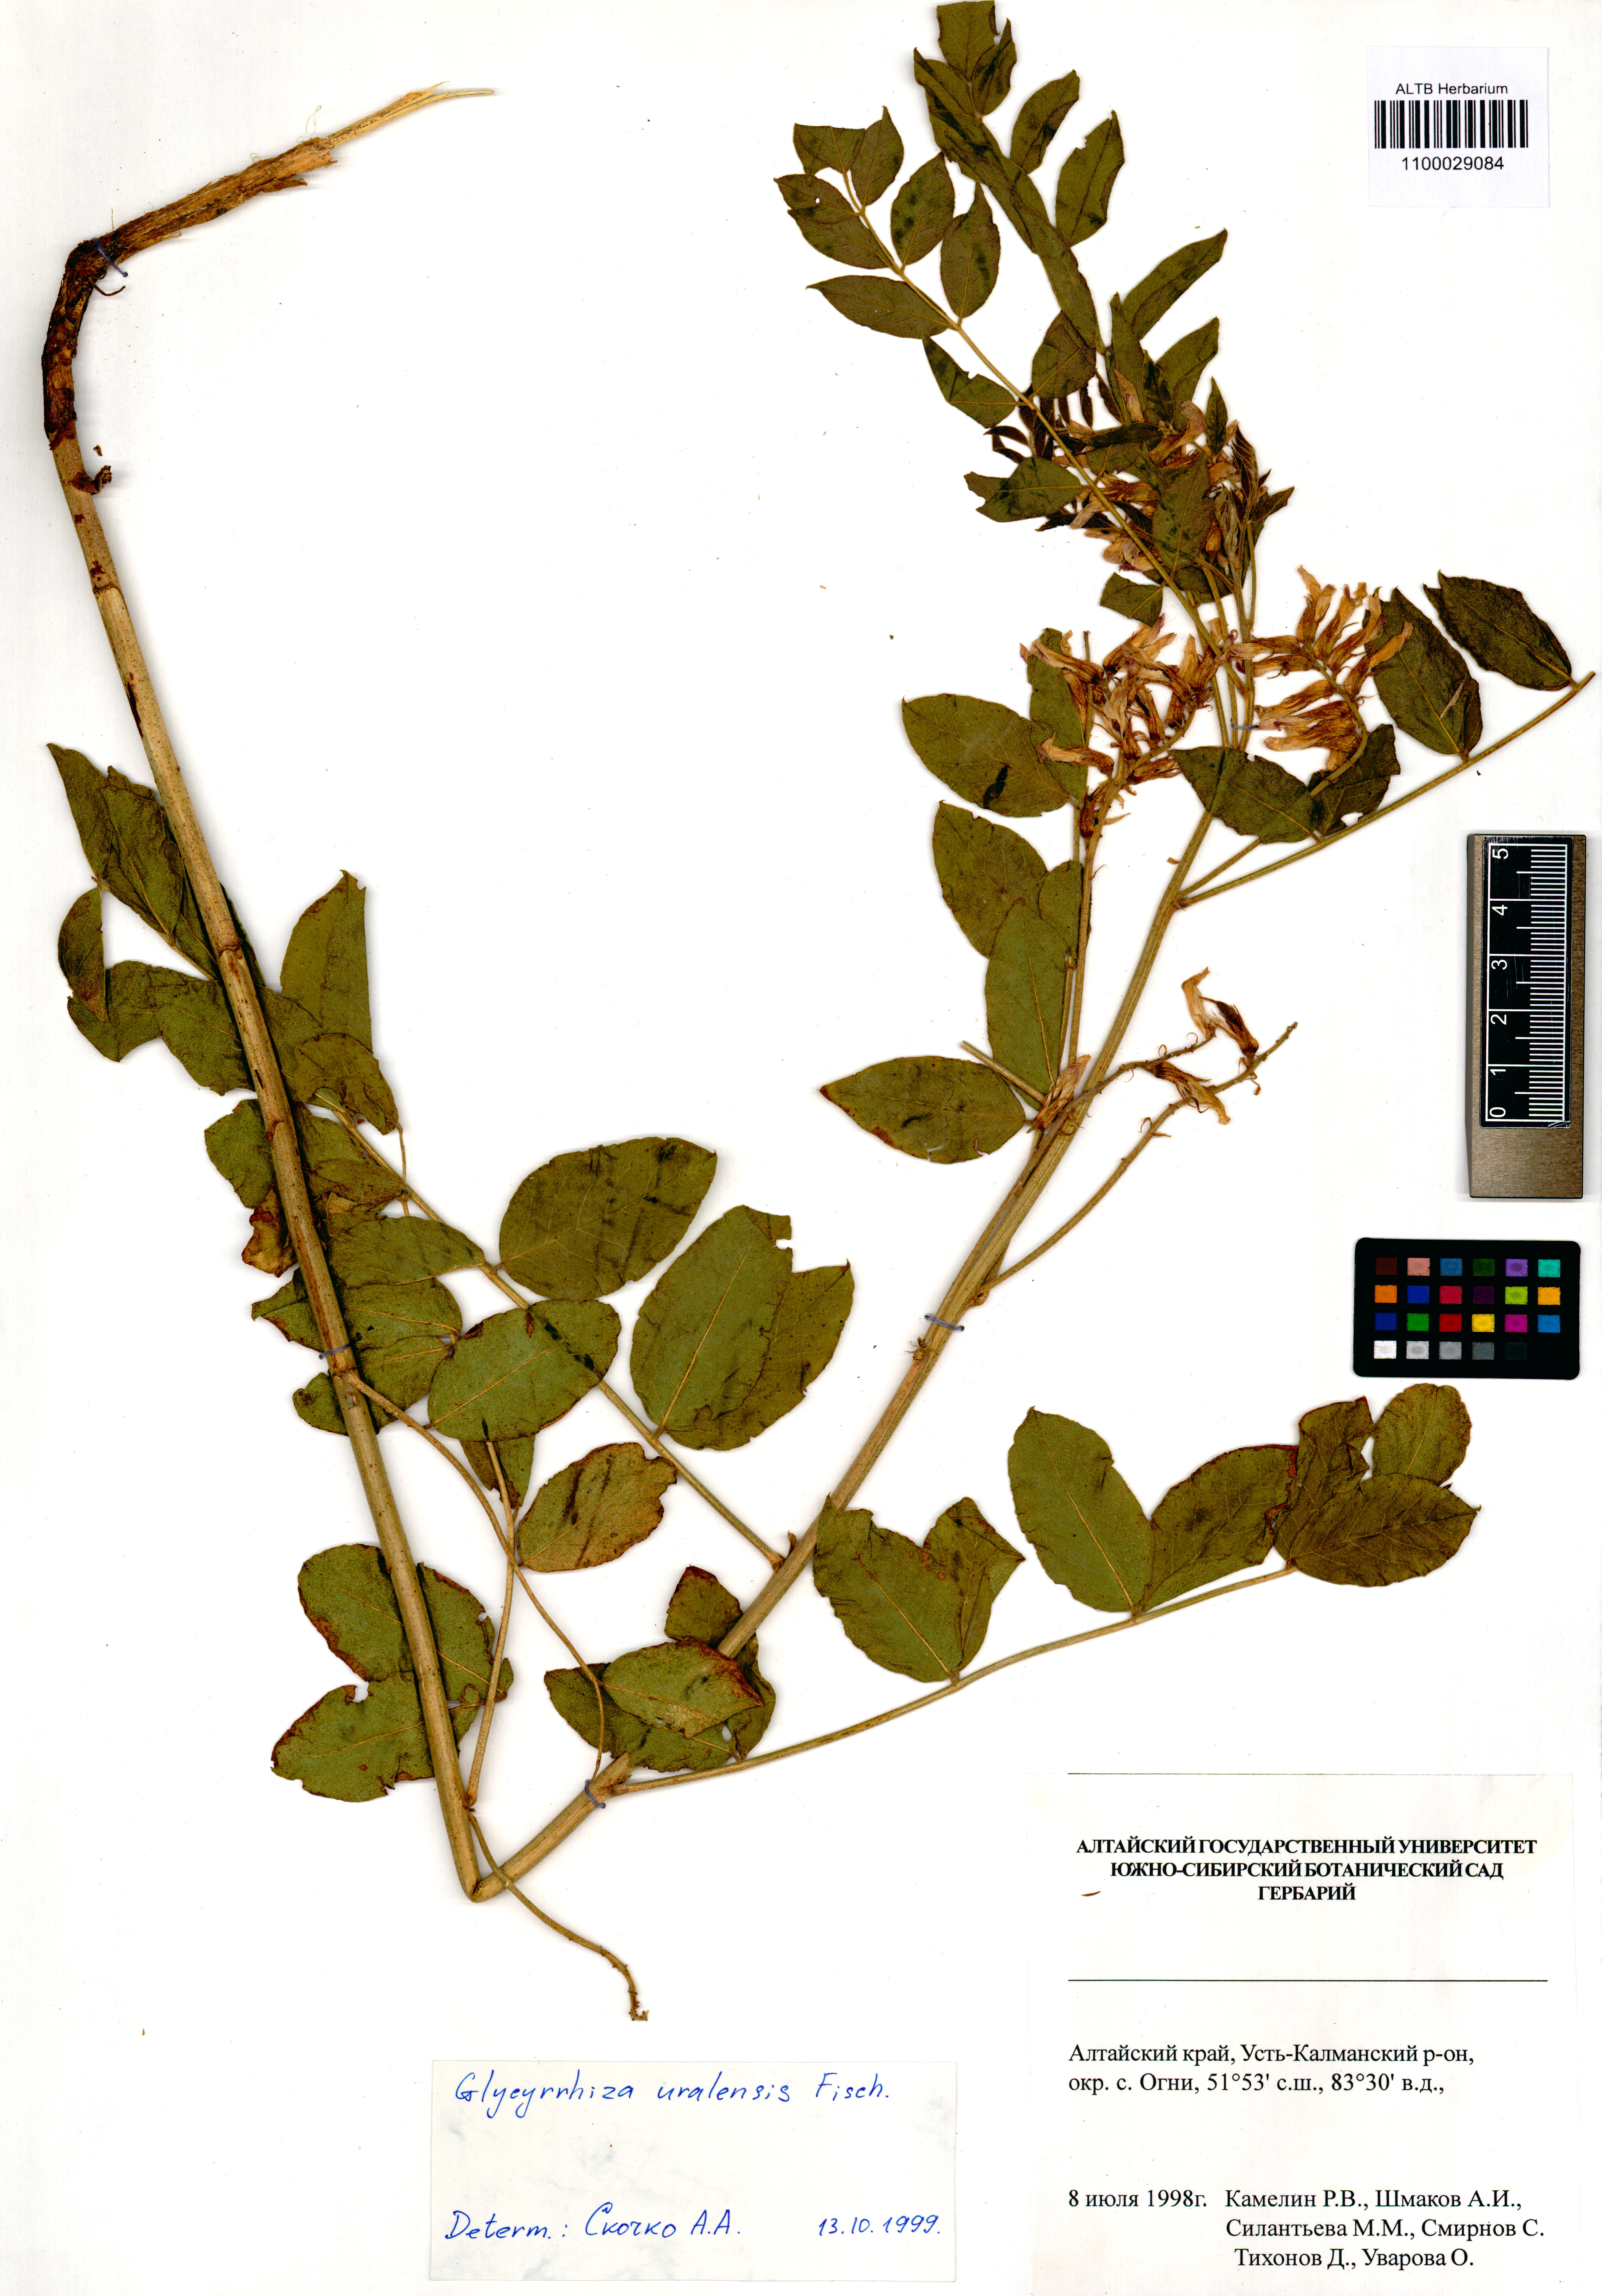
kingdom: Plantae
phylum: Tracheophyta
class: Magnoliopsida
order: Fabales
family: Fabaceae
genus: Glycyrrhiza
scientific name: Glycyrrhiza uralensis
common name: Chinese licorice
